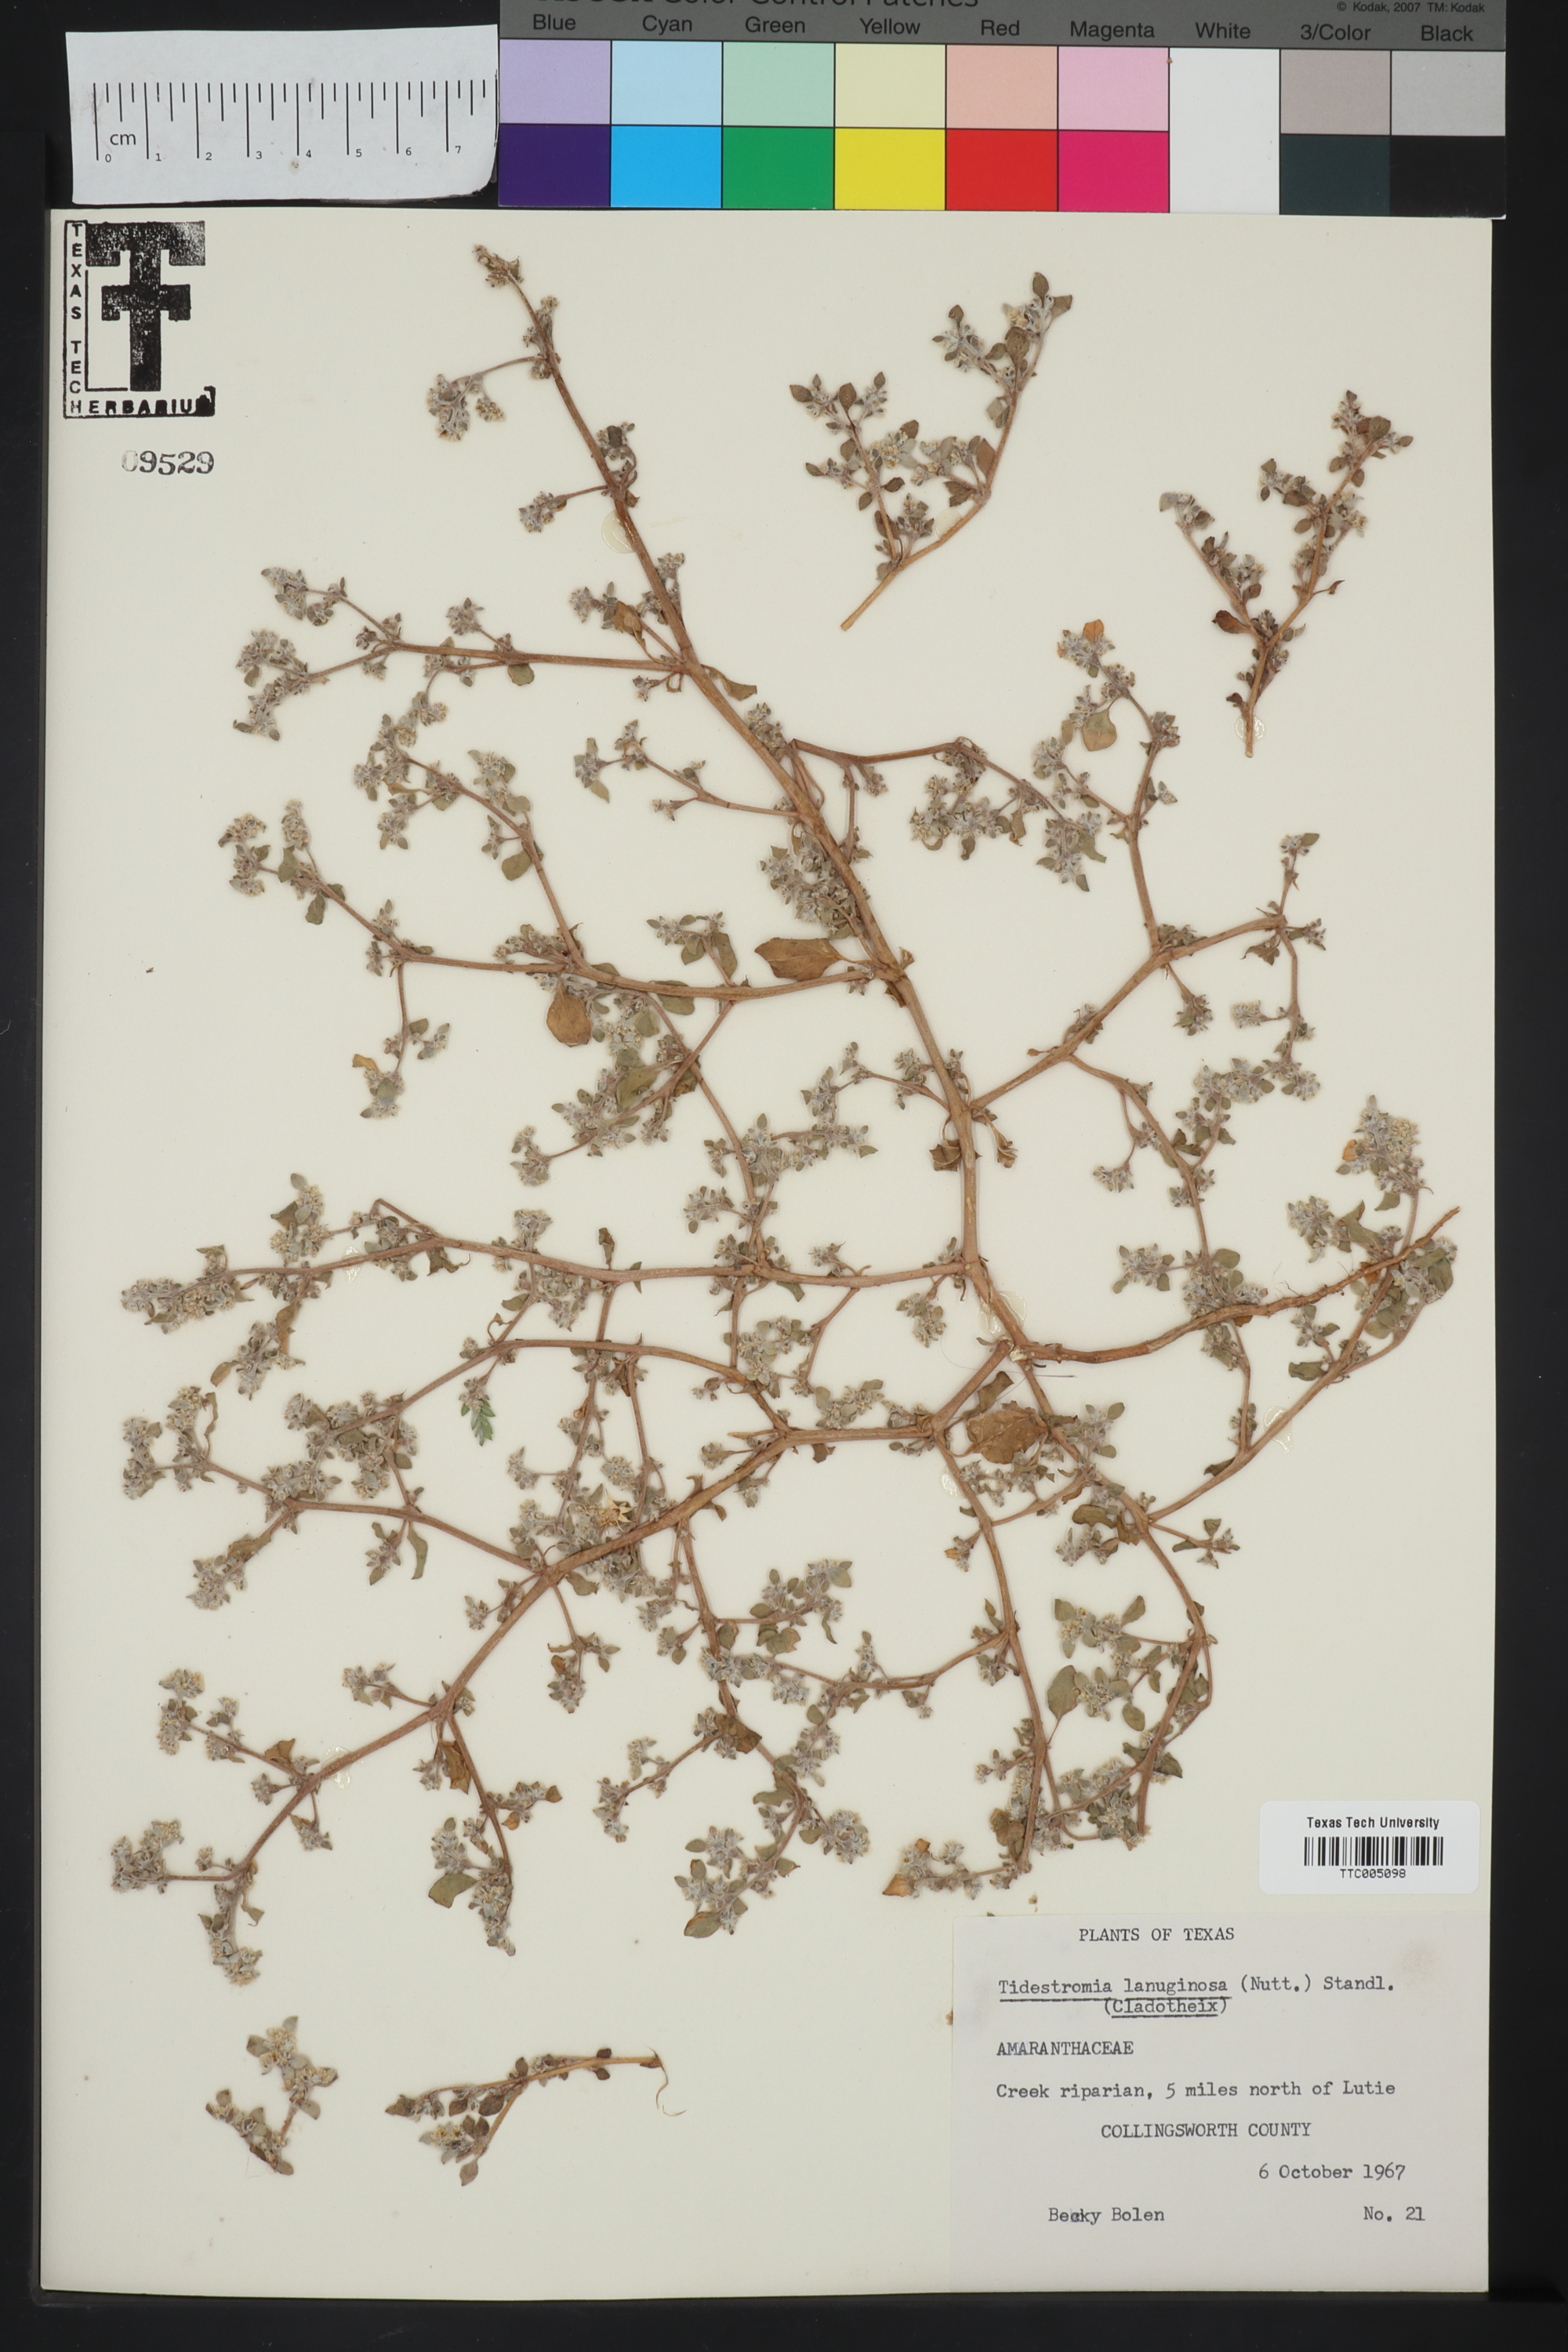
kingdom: Plantae
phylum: Tracheophyta
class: Magnoliopsida
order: Caryophyllales
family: Amaranthaceae
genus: Tidestromia
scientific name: Tidestromia lanuginosa
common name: Woolly tidestromia
